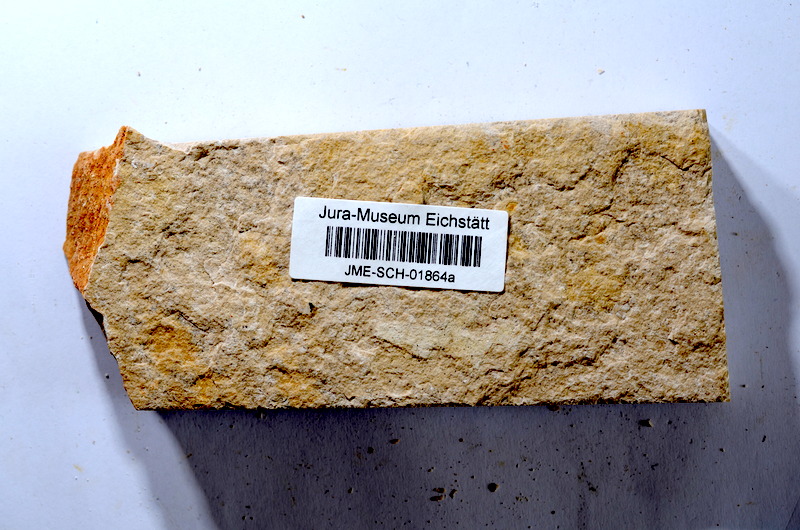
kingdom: Animalia
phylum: Chordata
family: Ascalaboidae
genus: Tharsis
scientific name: Tharsis dubius
